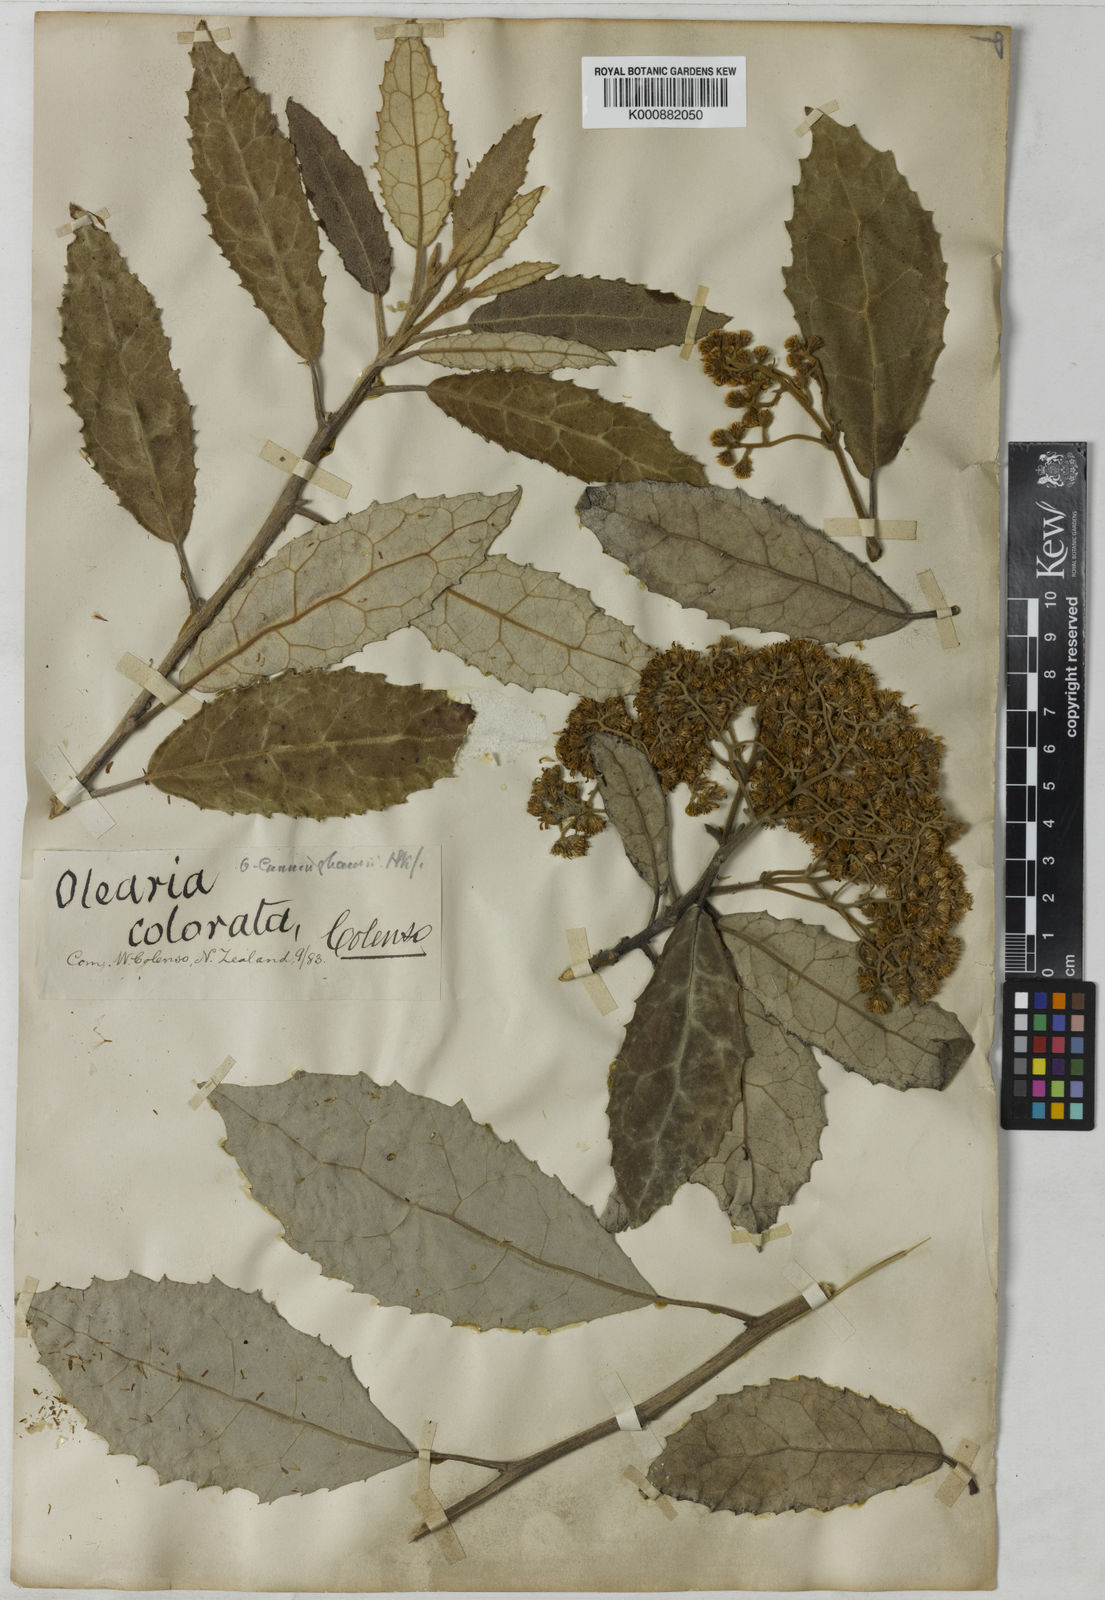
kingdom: Plantae
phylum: Tracheophyta
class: Magnoliopsida
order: Asterales
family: Asteraceae
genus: Olearia
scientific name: Olearia ilicifolia
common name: Maori-holly
